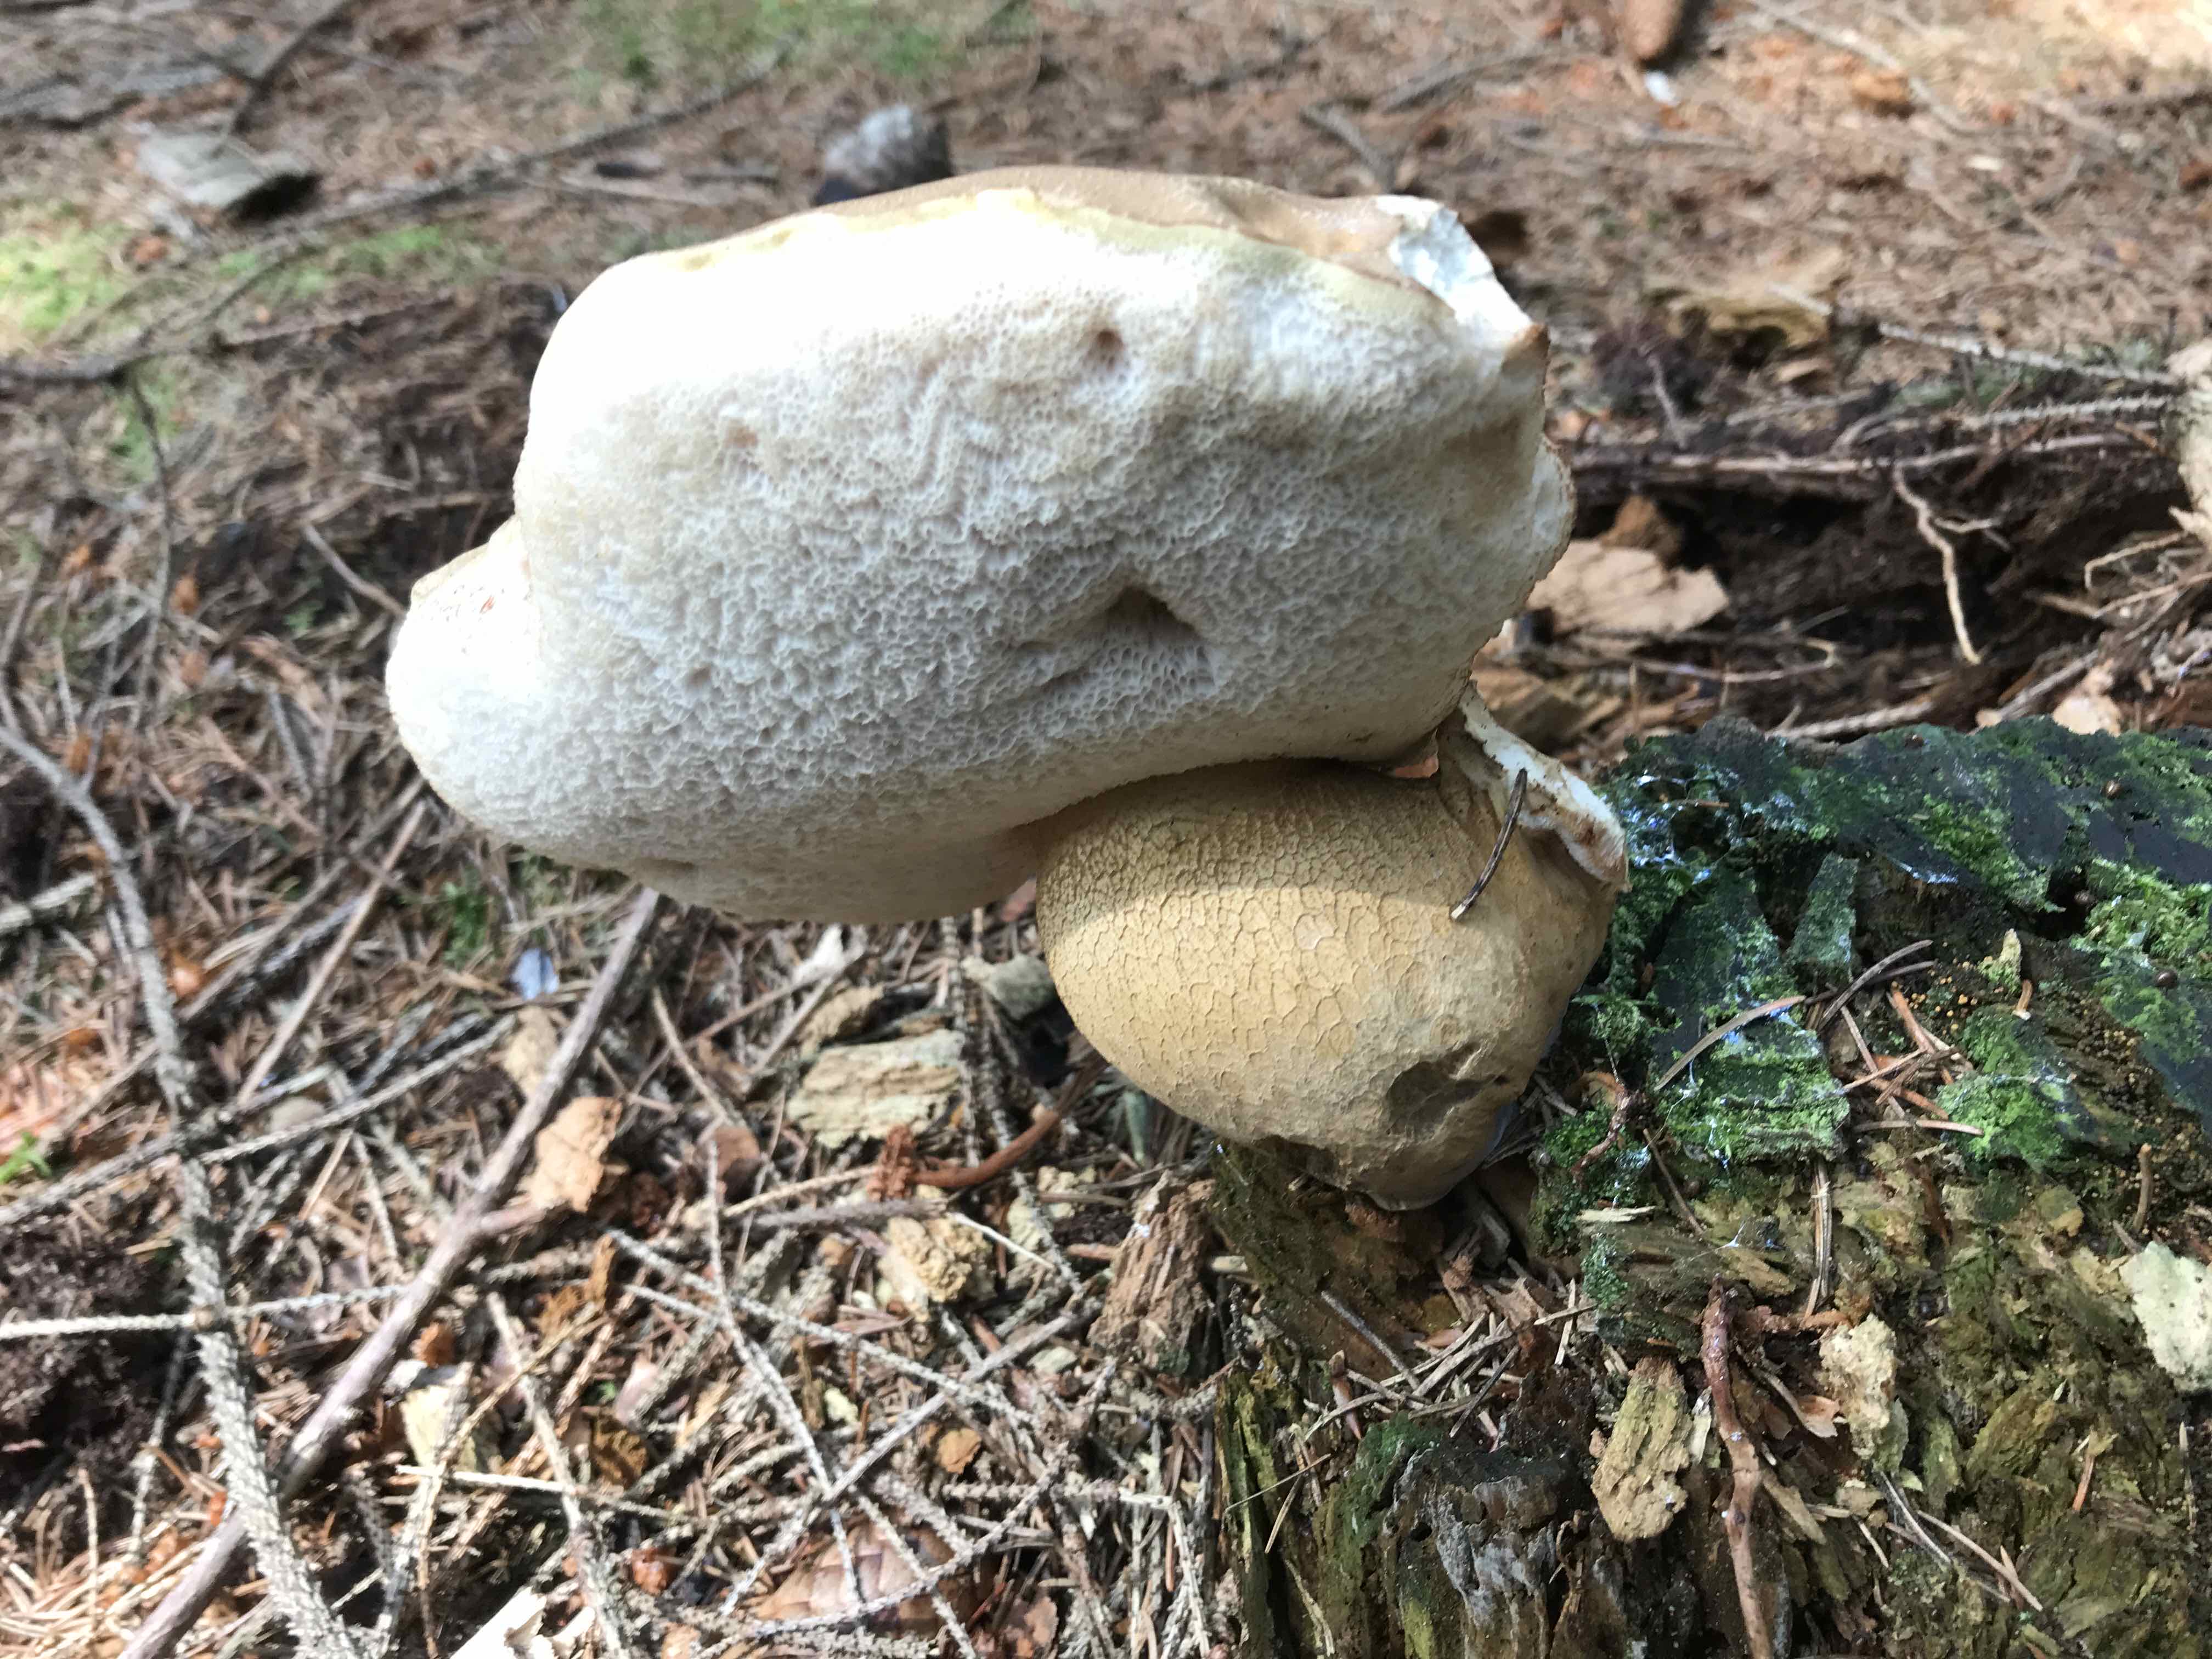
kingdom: Fungi
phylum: Basidiomycota
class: Agaricomycetes
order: Boletales
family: Boletaceae
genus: Tylopilus
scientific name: Tylopilus felleus
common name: galderørhat
